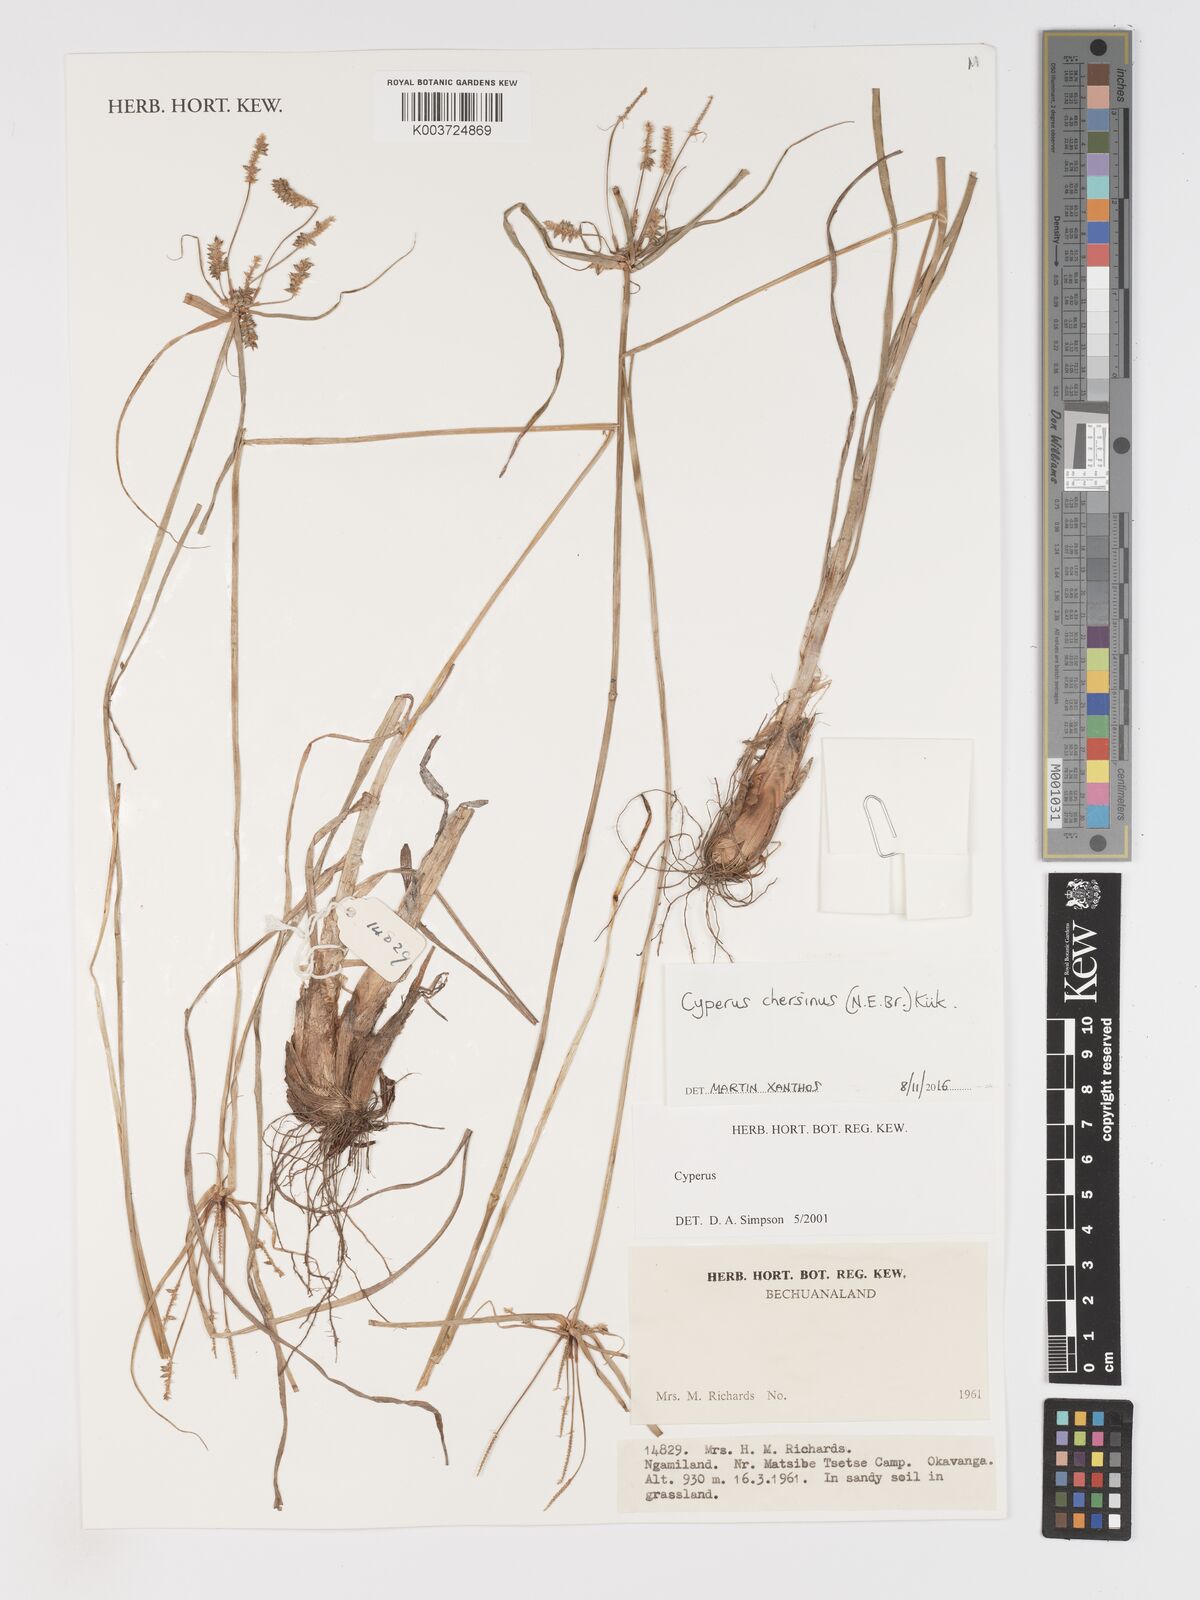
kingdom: Plantae
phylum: Tracheophyta
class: Liliopsida
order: Poales
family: Cyperaceae
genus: Cyperus
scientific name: Cyperus chersinus
